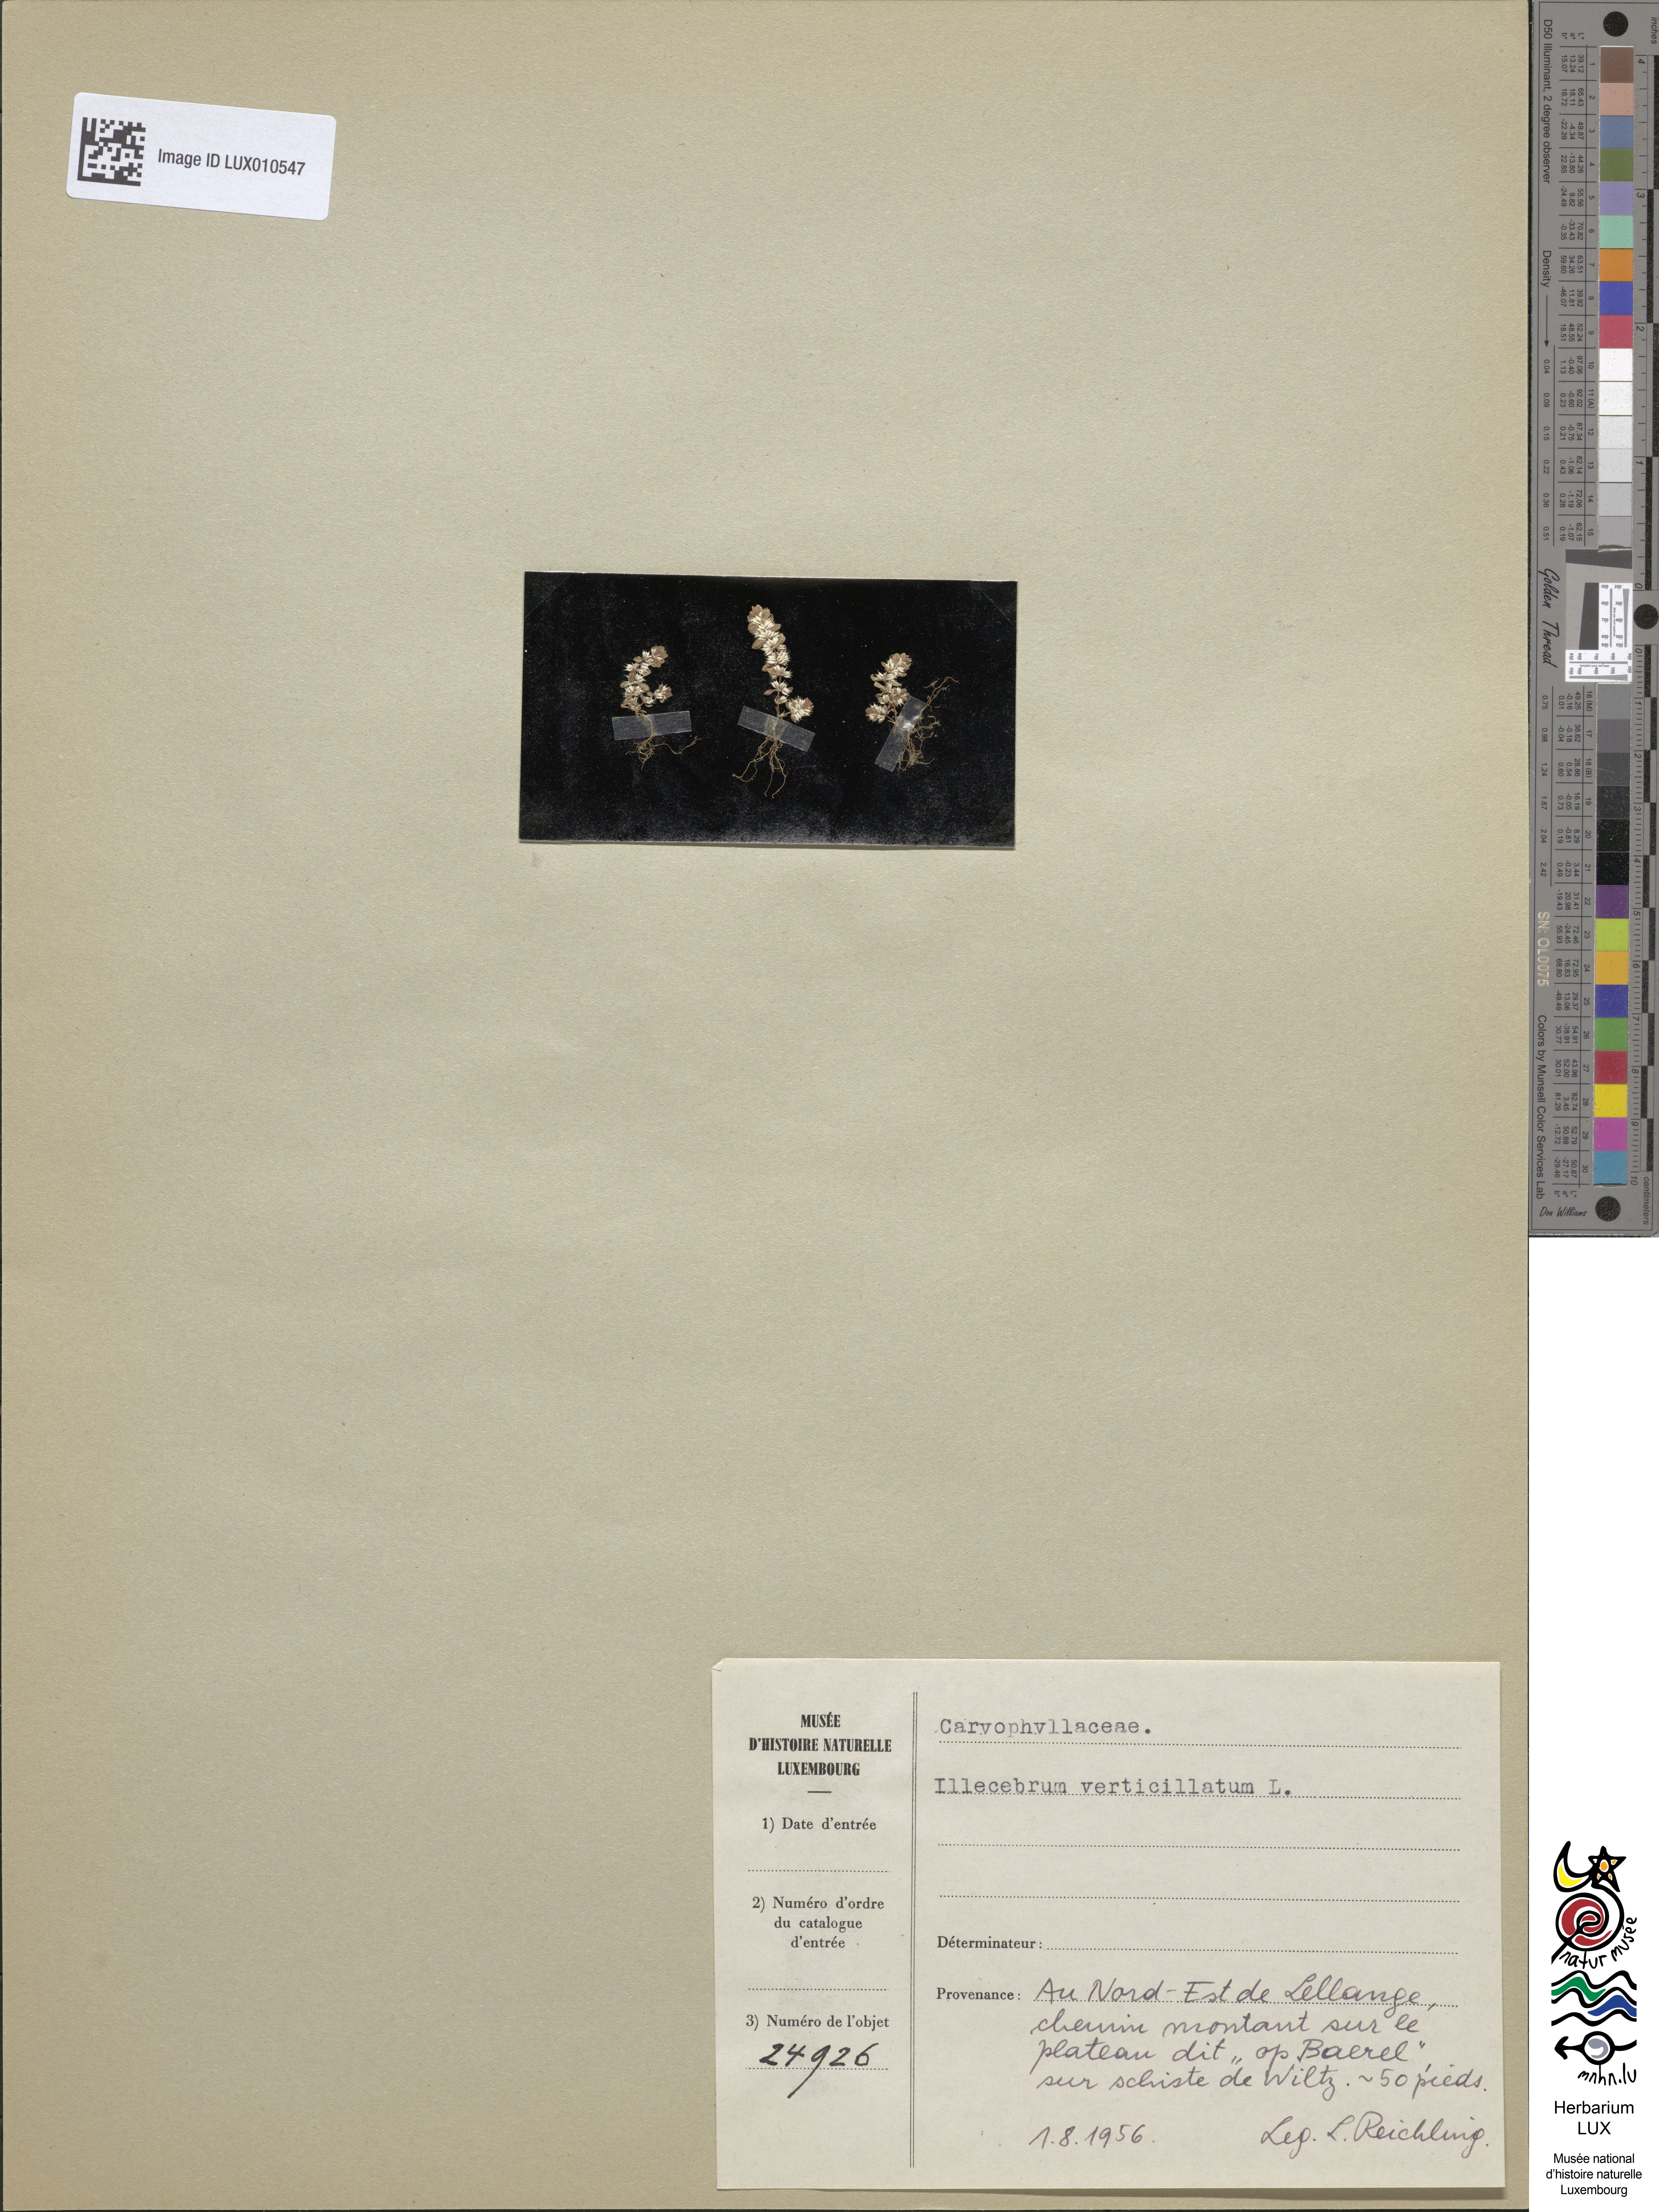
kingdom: Plantae
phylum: Tracheophyta
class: Magnoliopsida
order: Caryophyllales
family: Caryophyllaceae
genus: Illecebrum
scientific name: Illecebrum verticillatum
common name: Coral necklace
